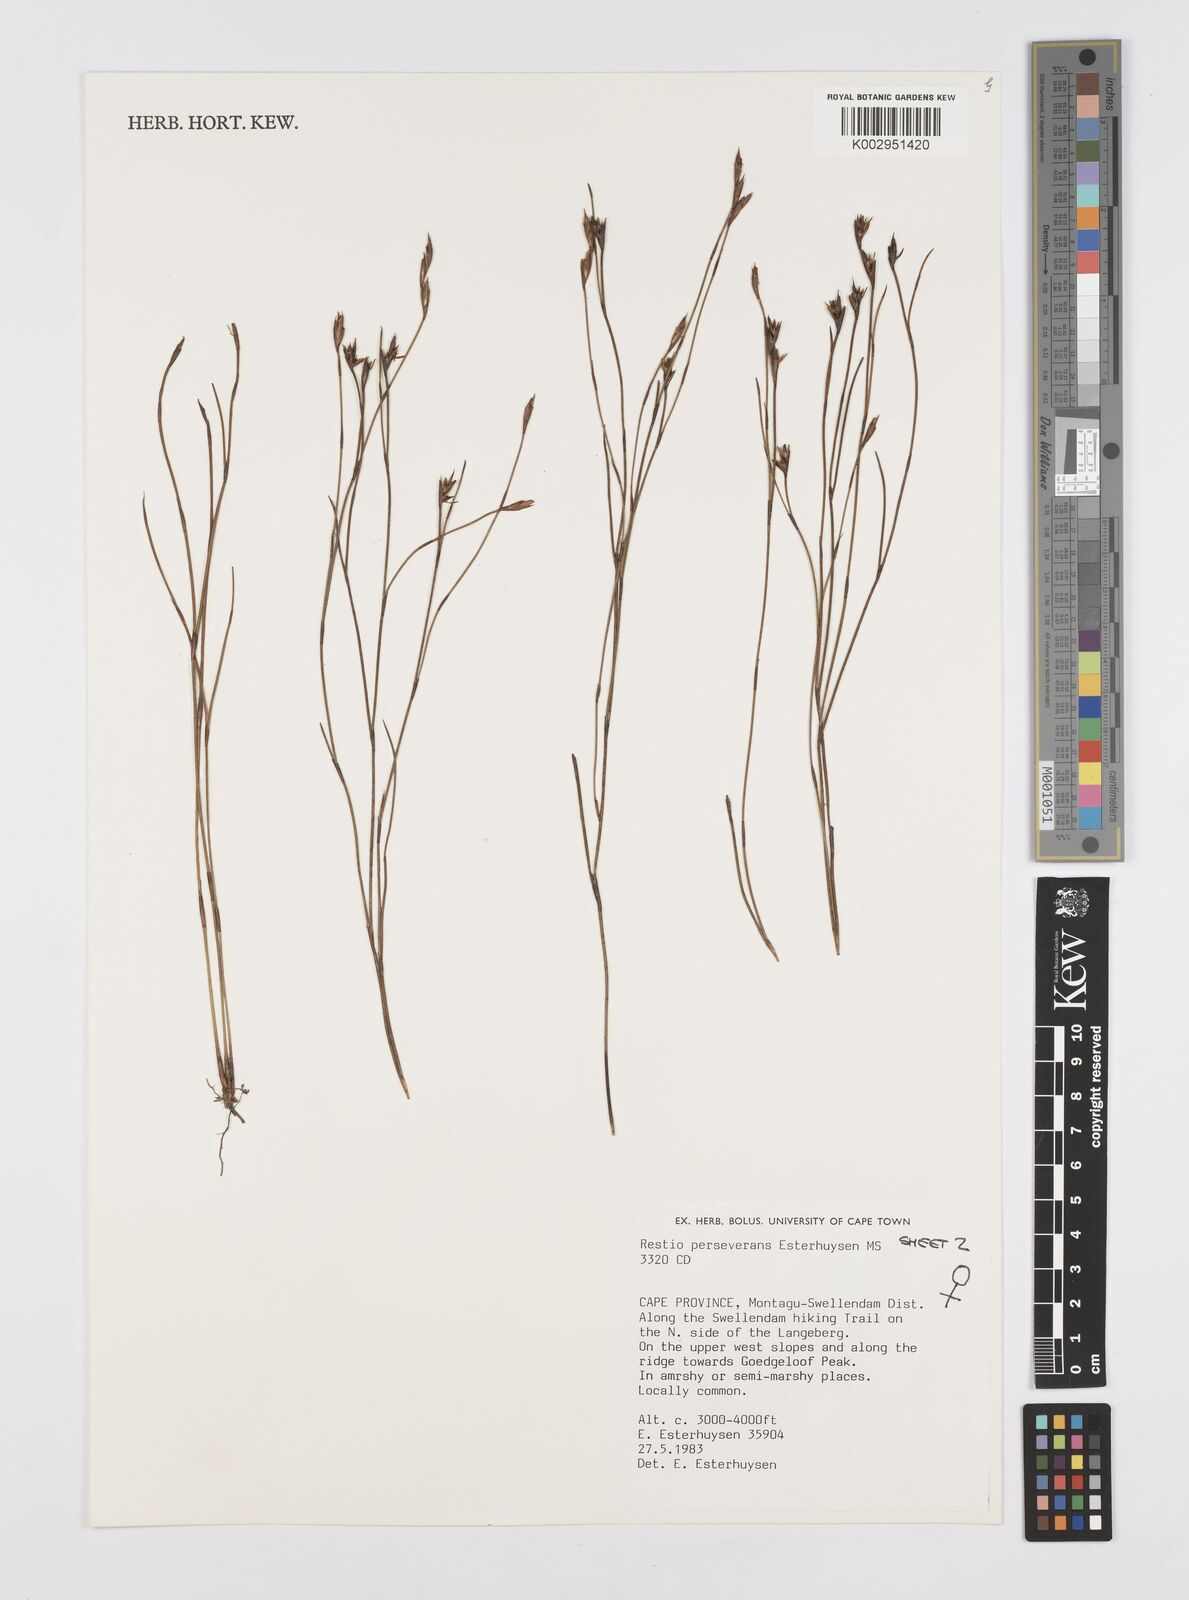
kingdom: Plantae
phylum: Tracheophyta
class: Liliopsida
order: Poales
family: Restionaceae
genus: Restio
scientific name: Restio perseverans
